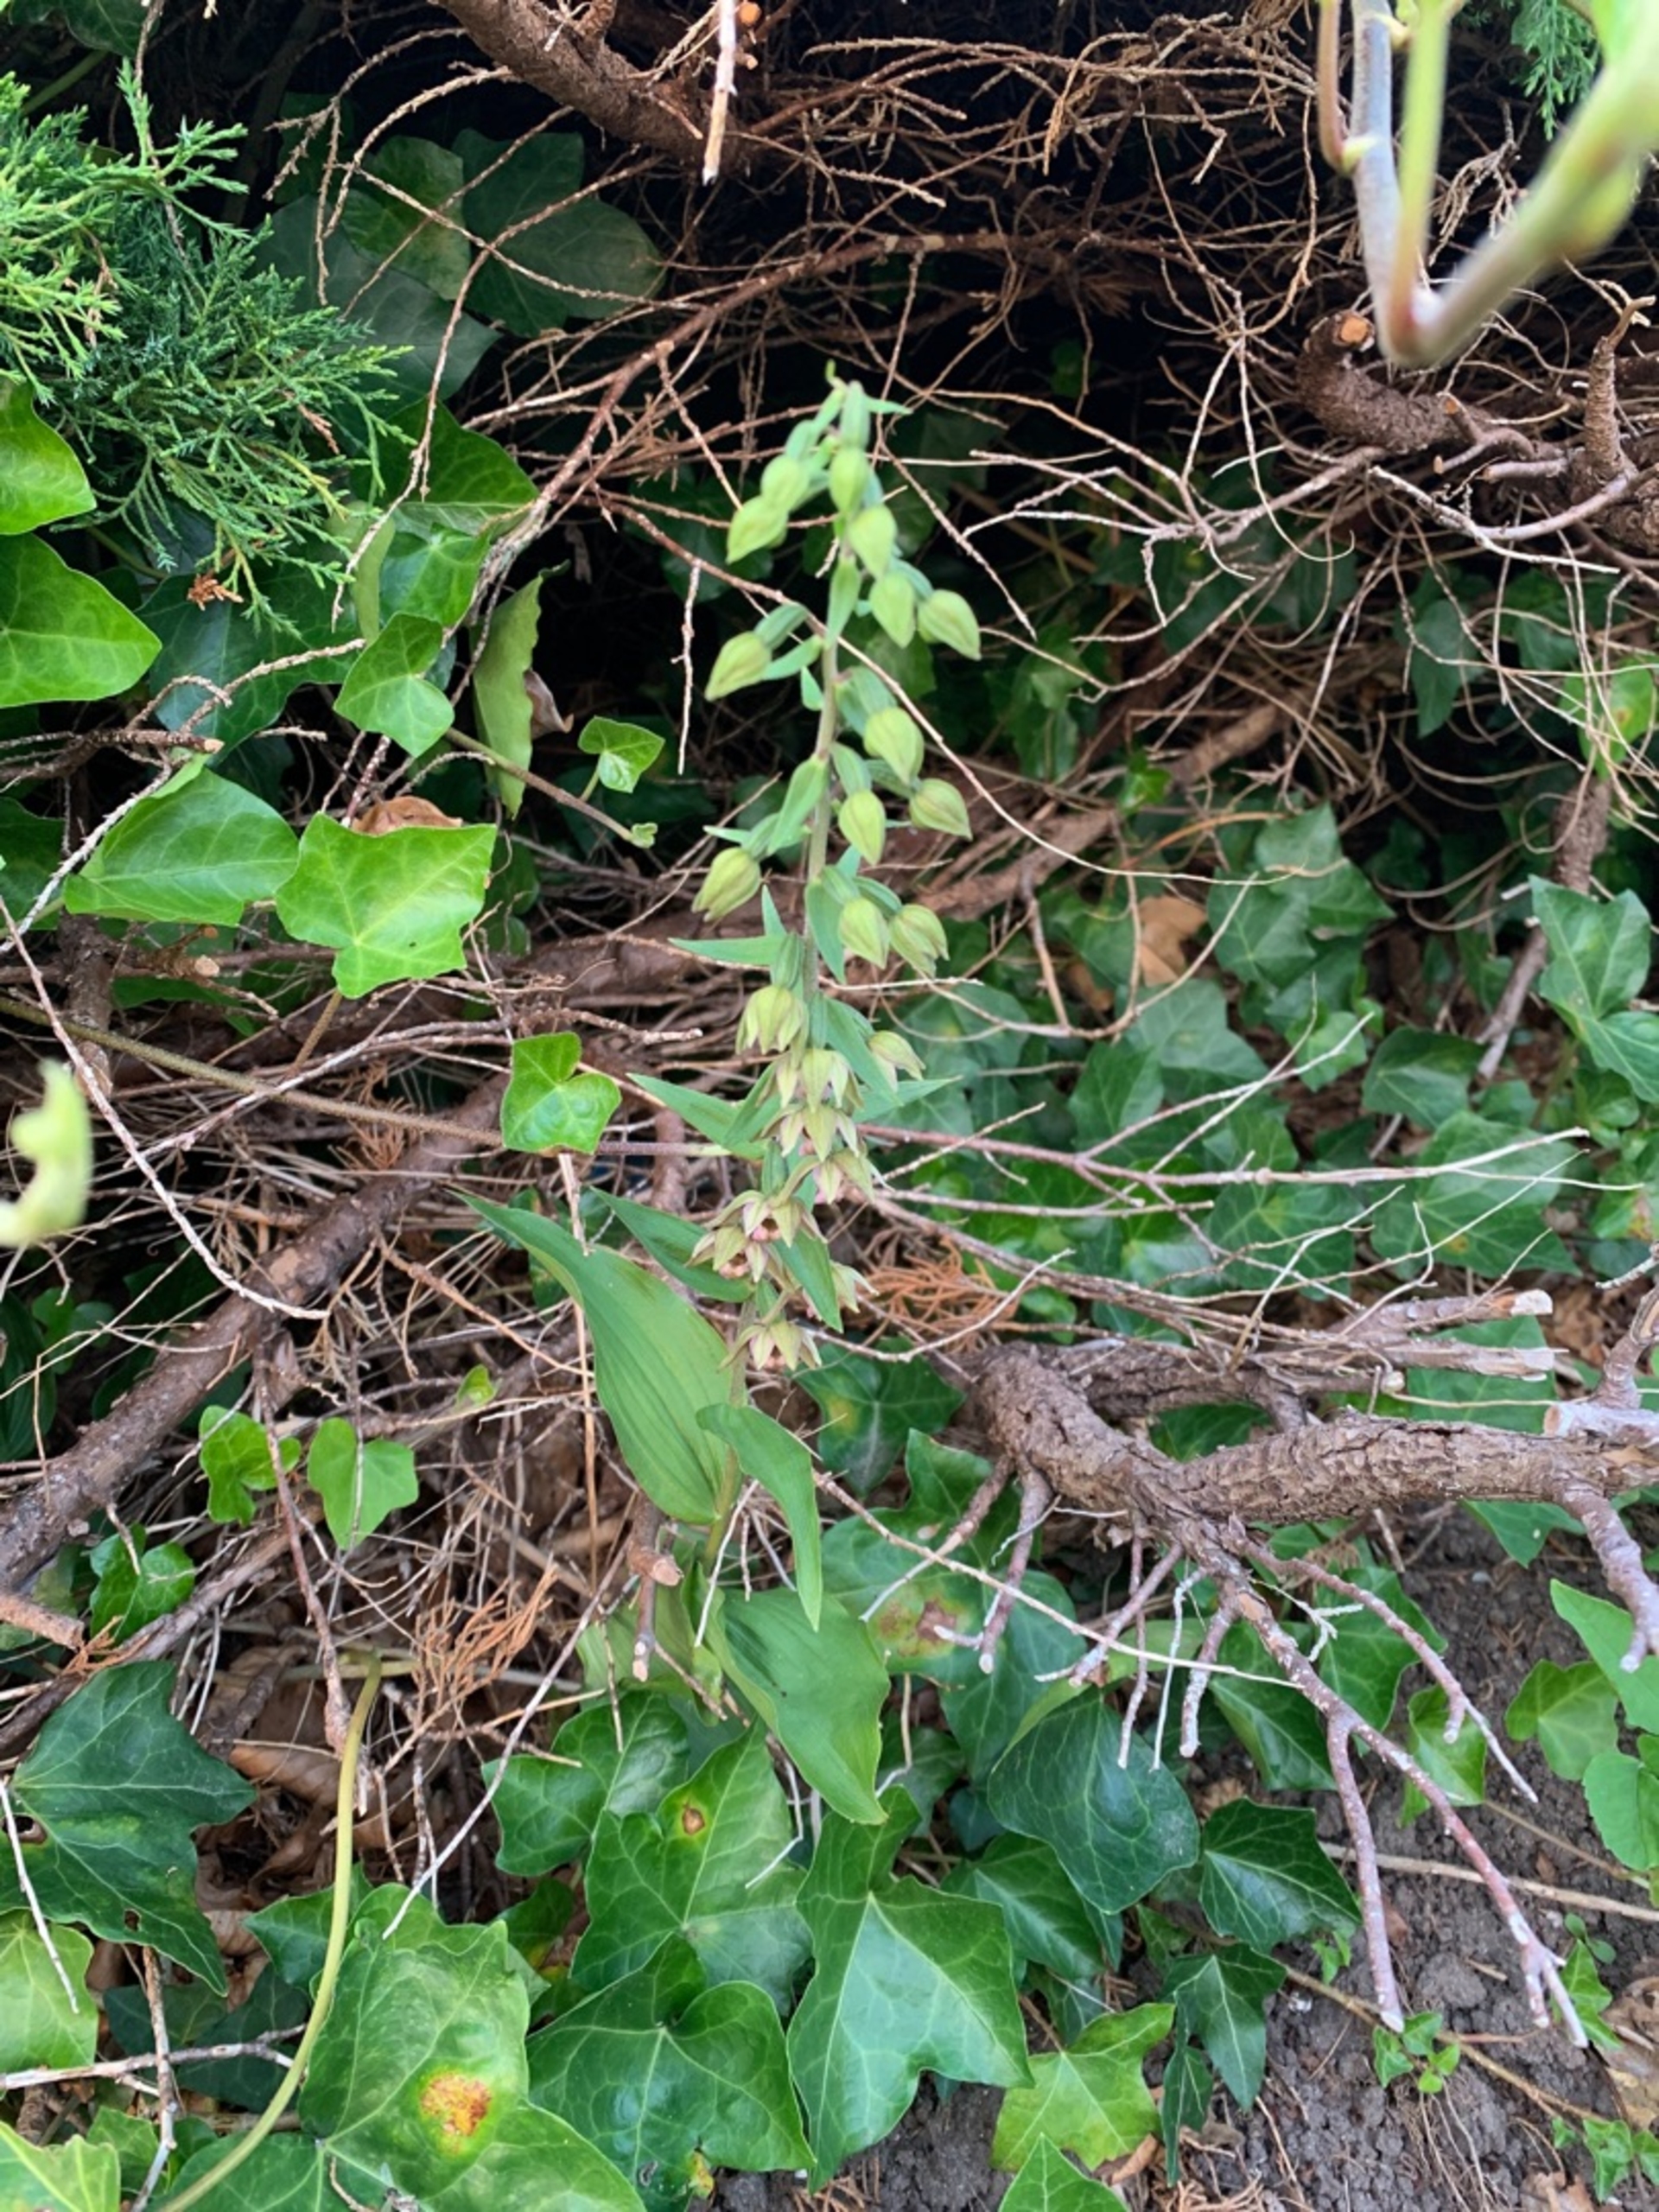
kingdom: Plantae
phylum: Tracheophyta
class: Liliopsida
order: Asparagales
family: Orchidaceae
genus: Epipactis
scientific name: Epipactis helleborine
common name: Skov-hullæbe
